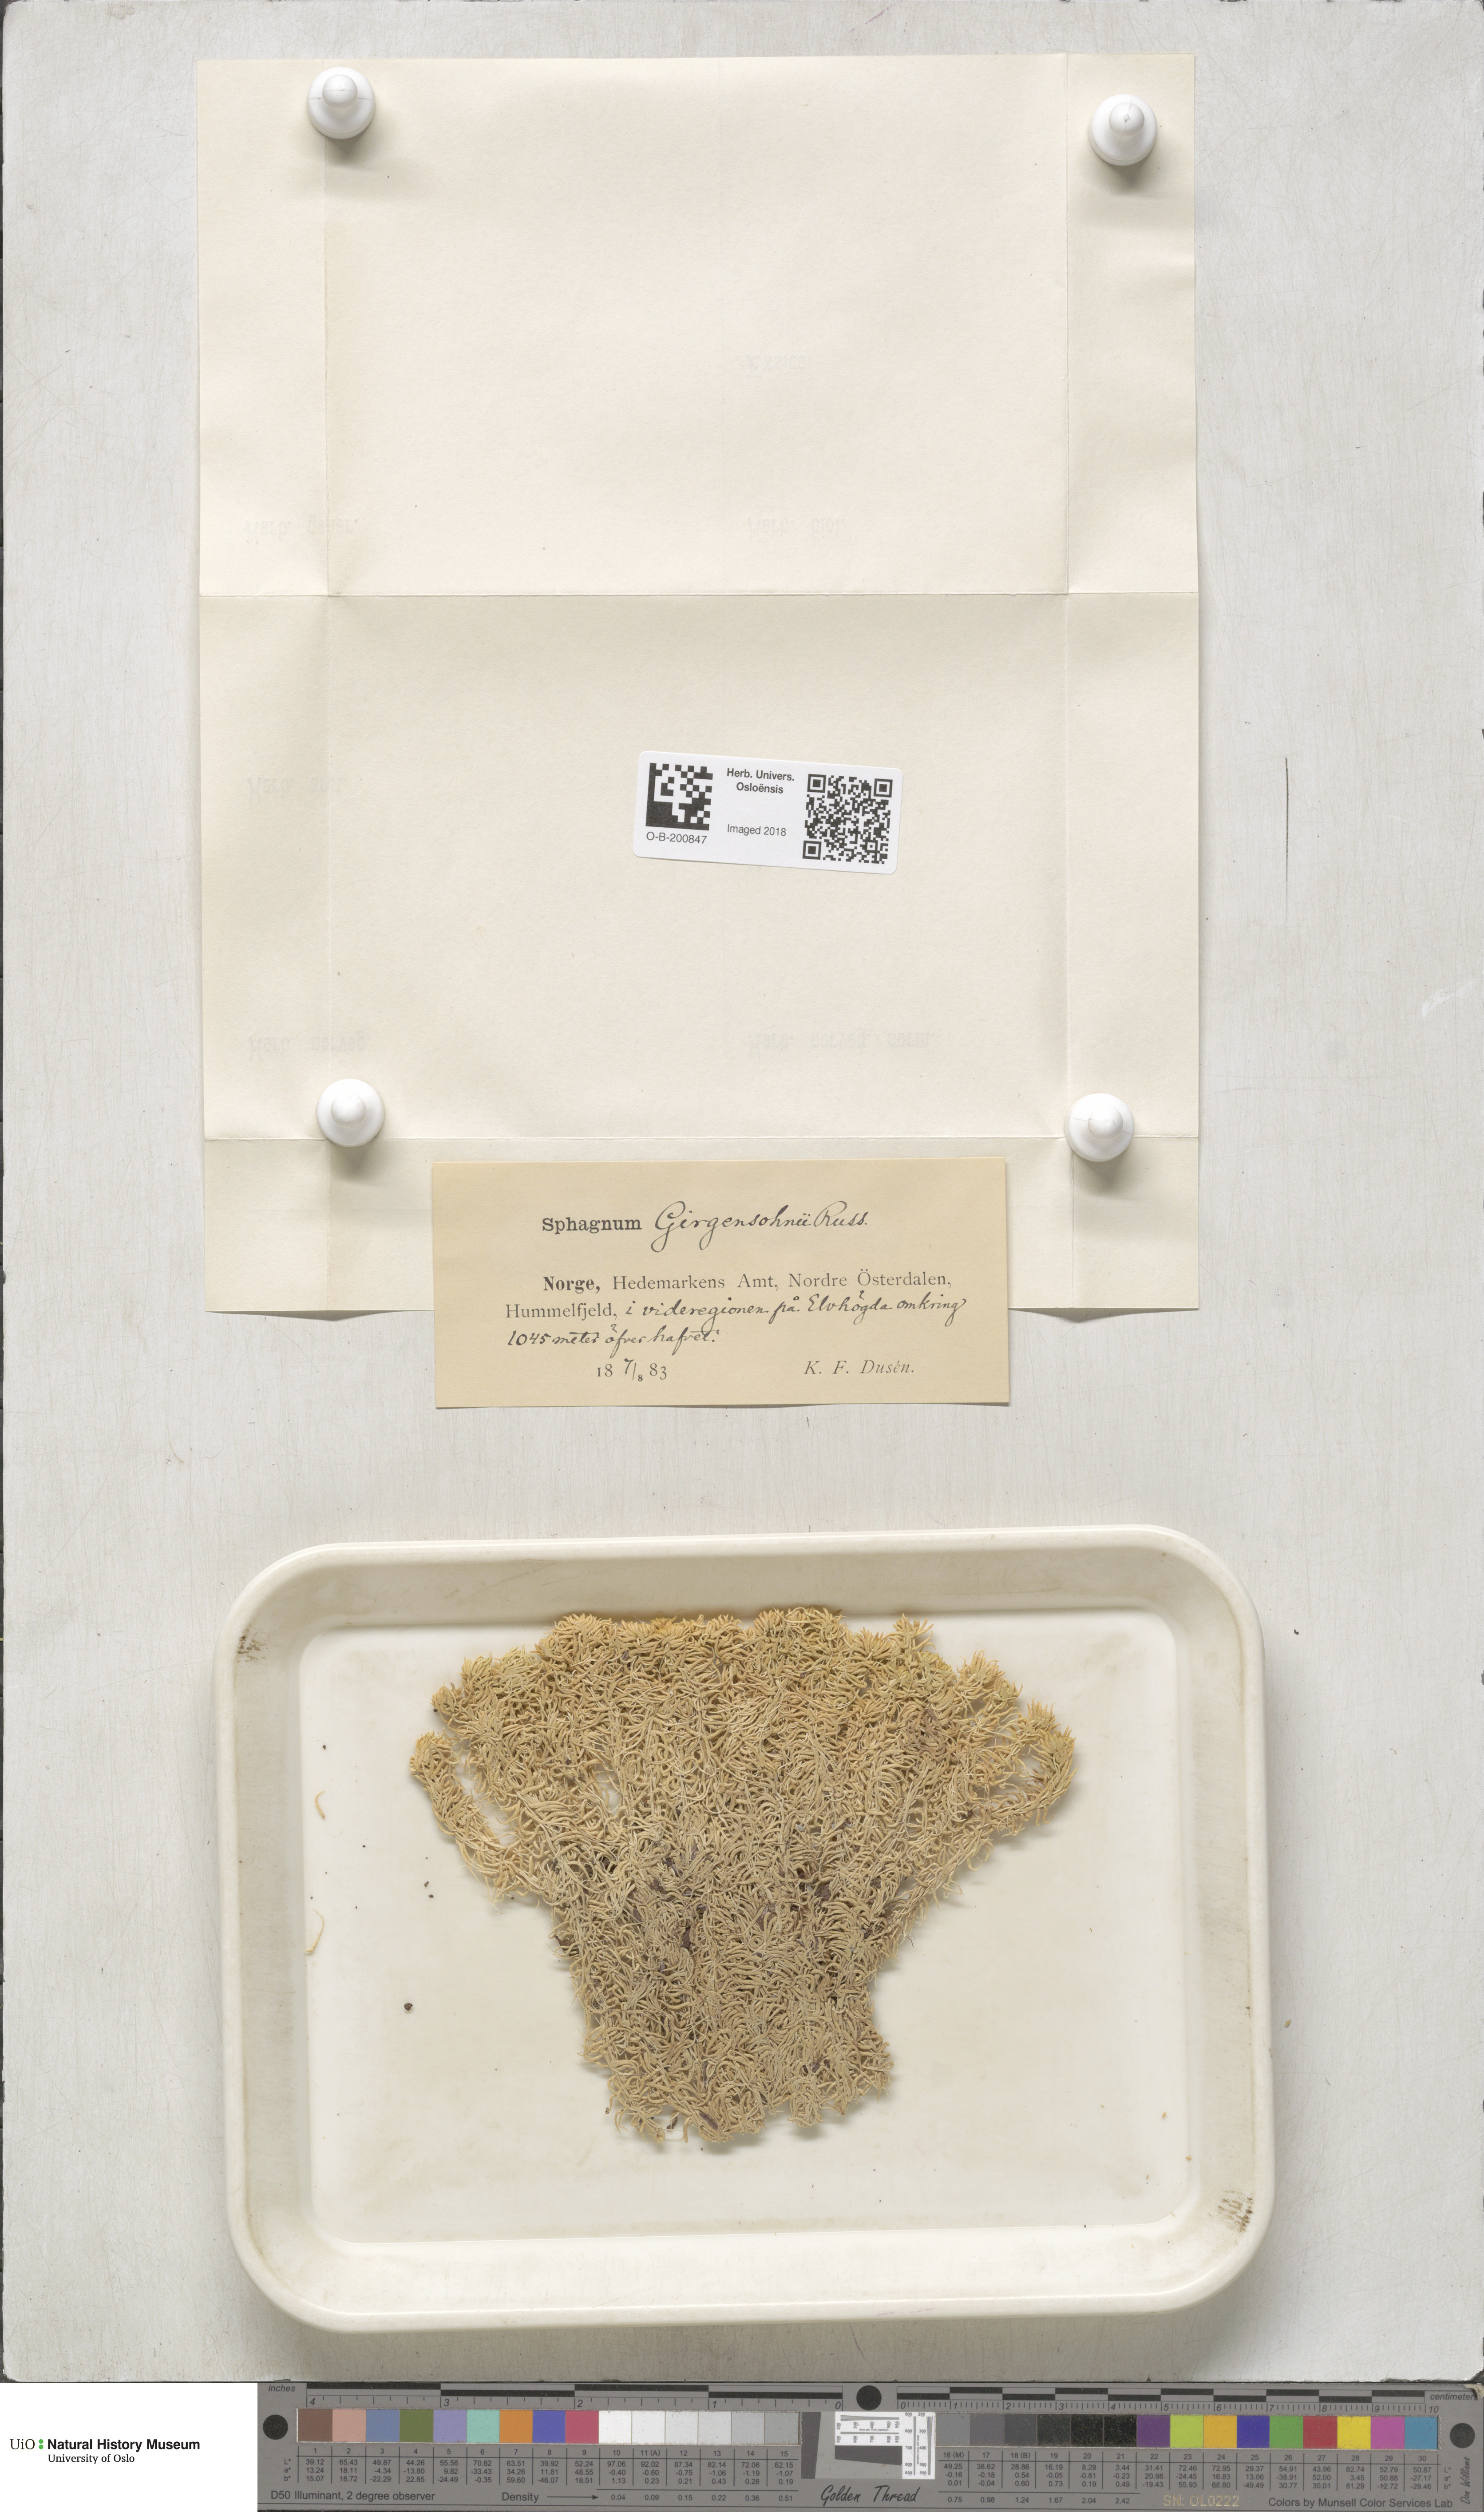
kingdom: Plantae
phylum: Bryophyta
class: Sphagnopsida
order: Sphagnales
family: Sphagnaceae
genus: Sphagnum
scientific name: Sphagnum girgensohnii
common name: Girgensohn's peat moss
